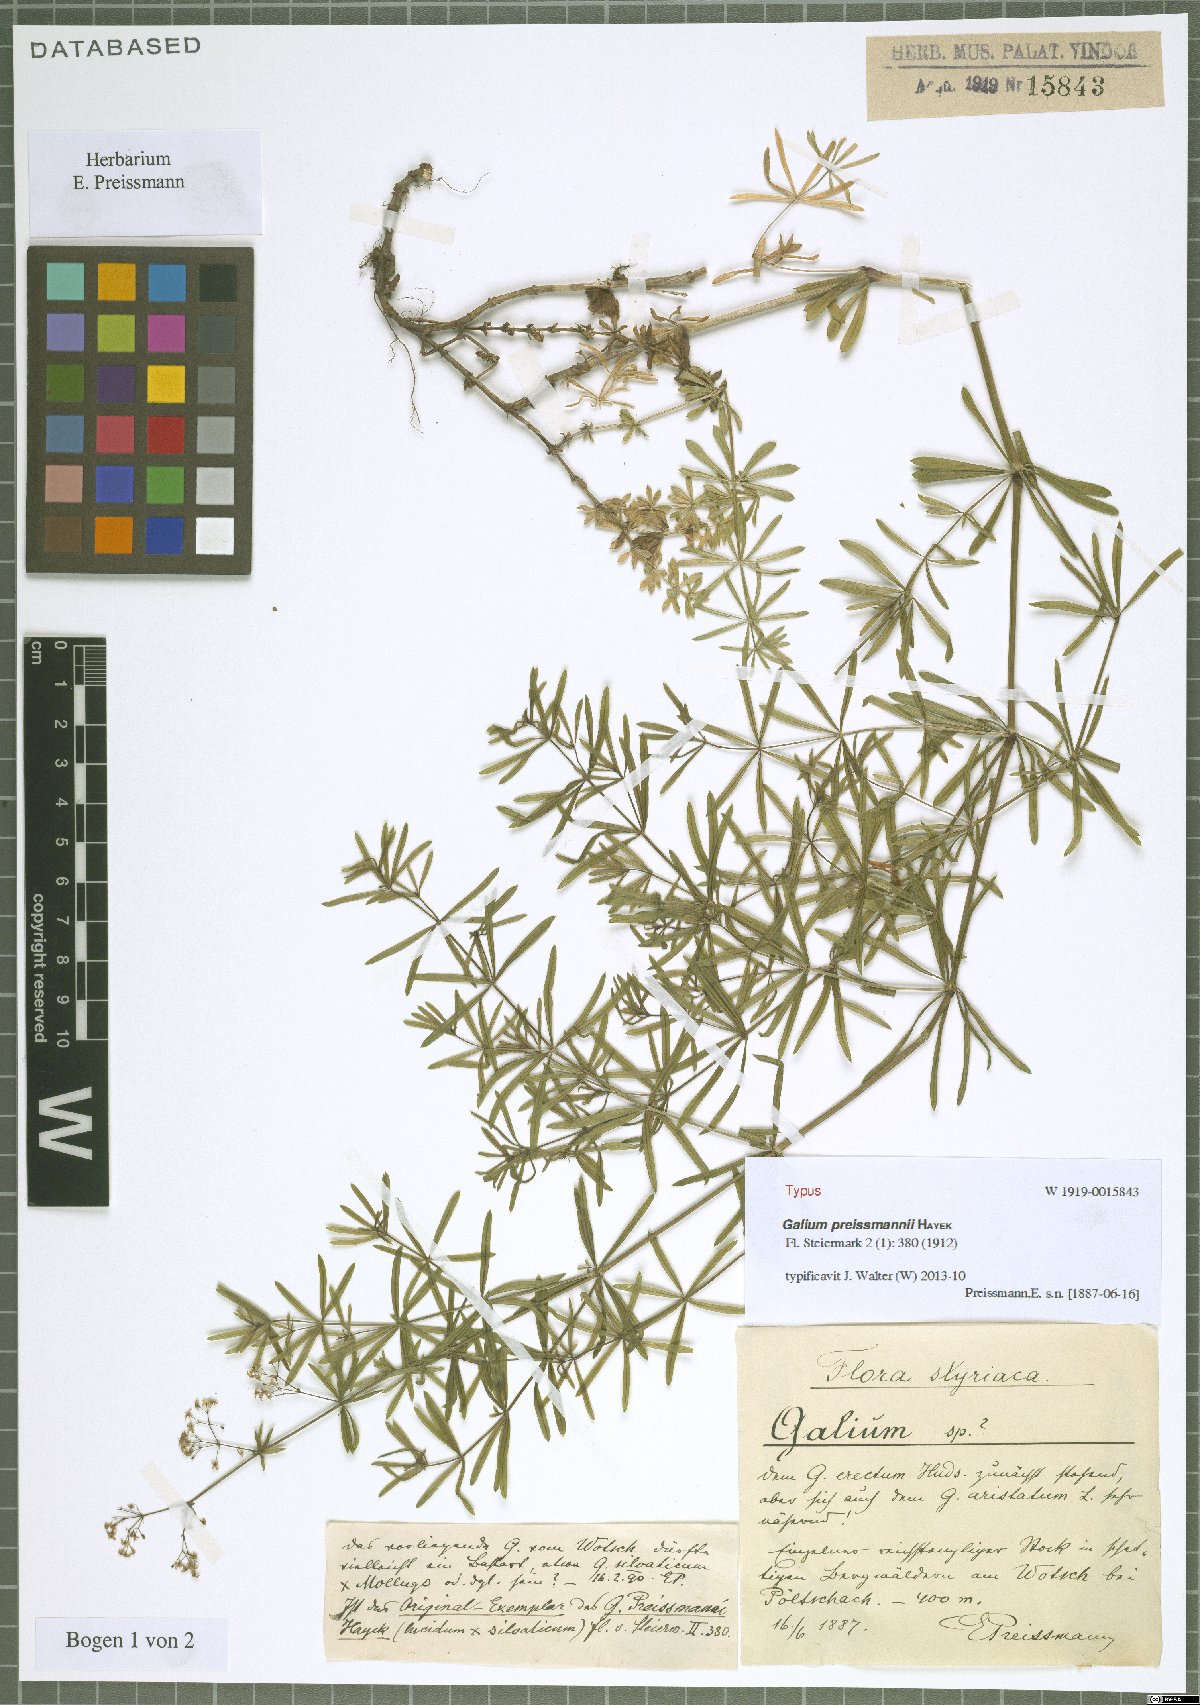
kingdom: Plantae
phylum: Tracheophyta
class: Magnoliopsida
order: Gentianales
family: Rubiaceae
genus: Galium
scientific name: Galium preissmannii
